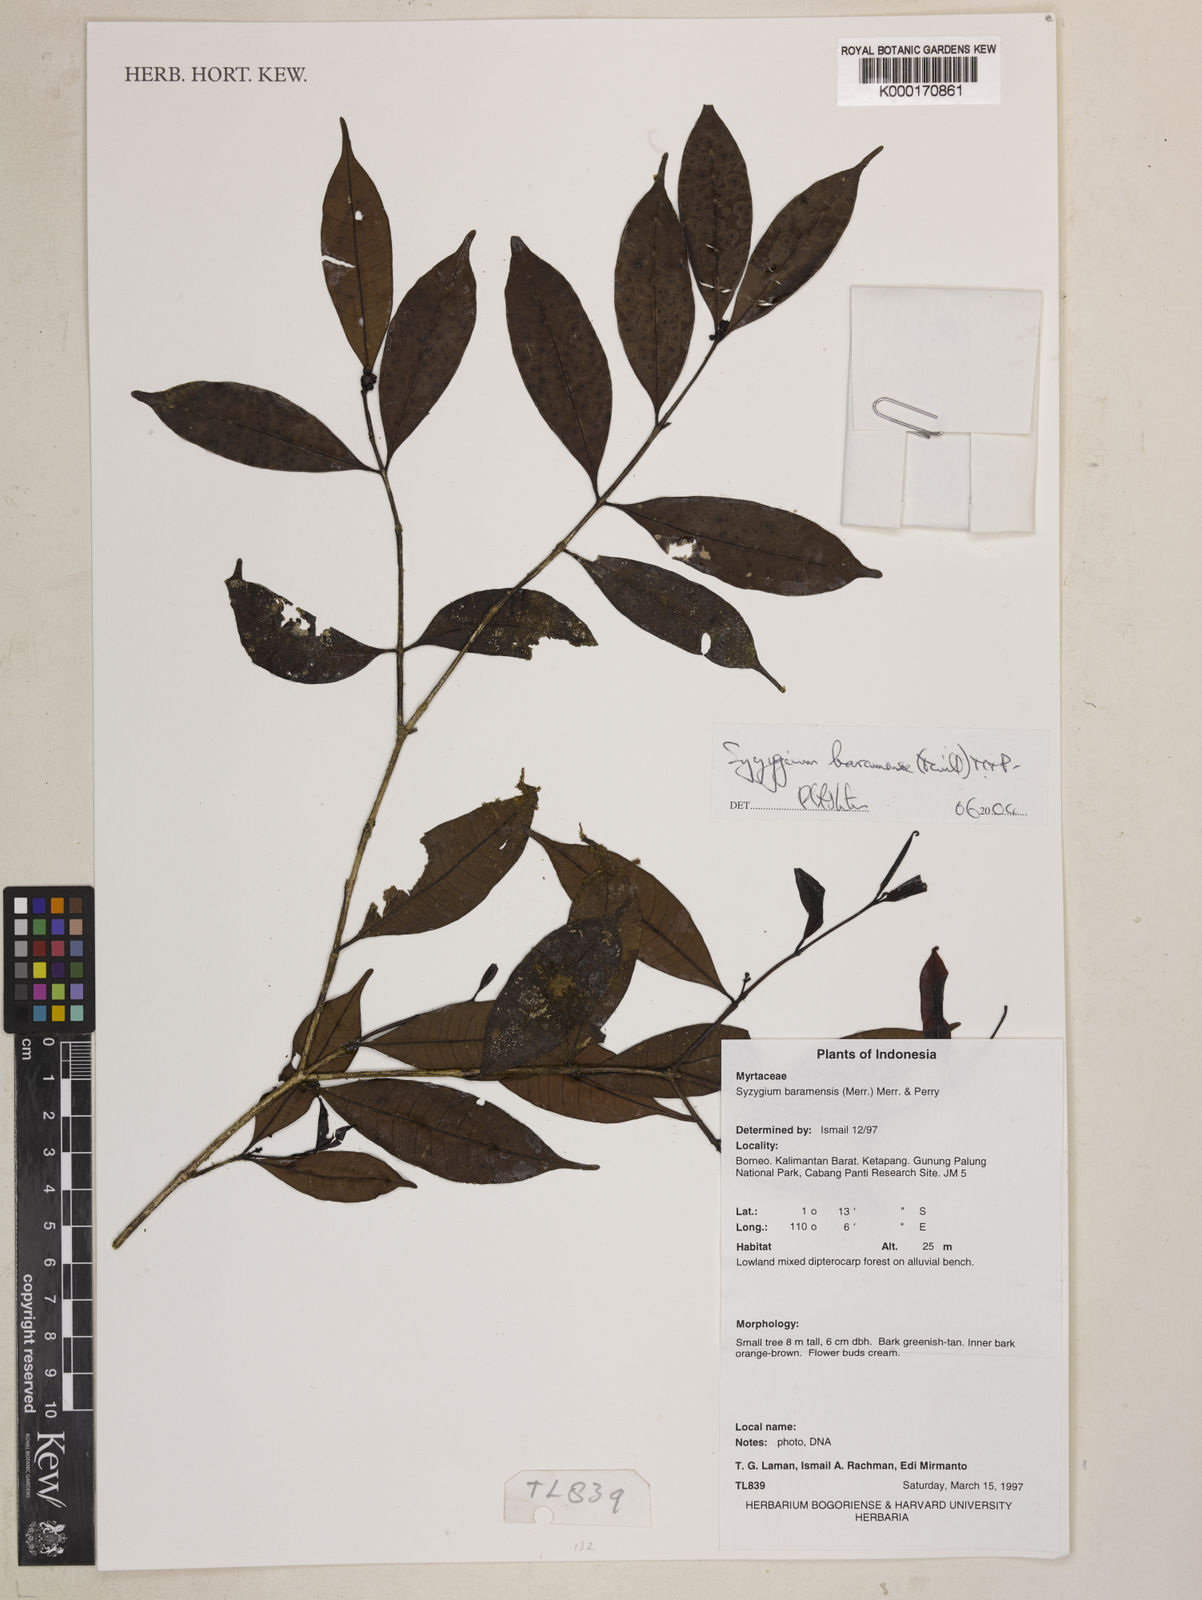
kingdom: Plantae
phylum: Tracheophyta
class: Magnoliopsida
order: Myrtales
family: Myrtaceae
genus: Syzygium
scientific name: Syzygium baramense
